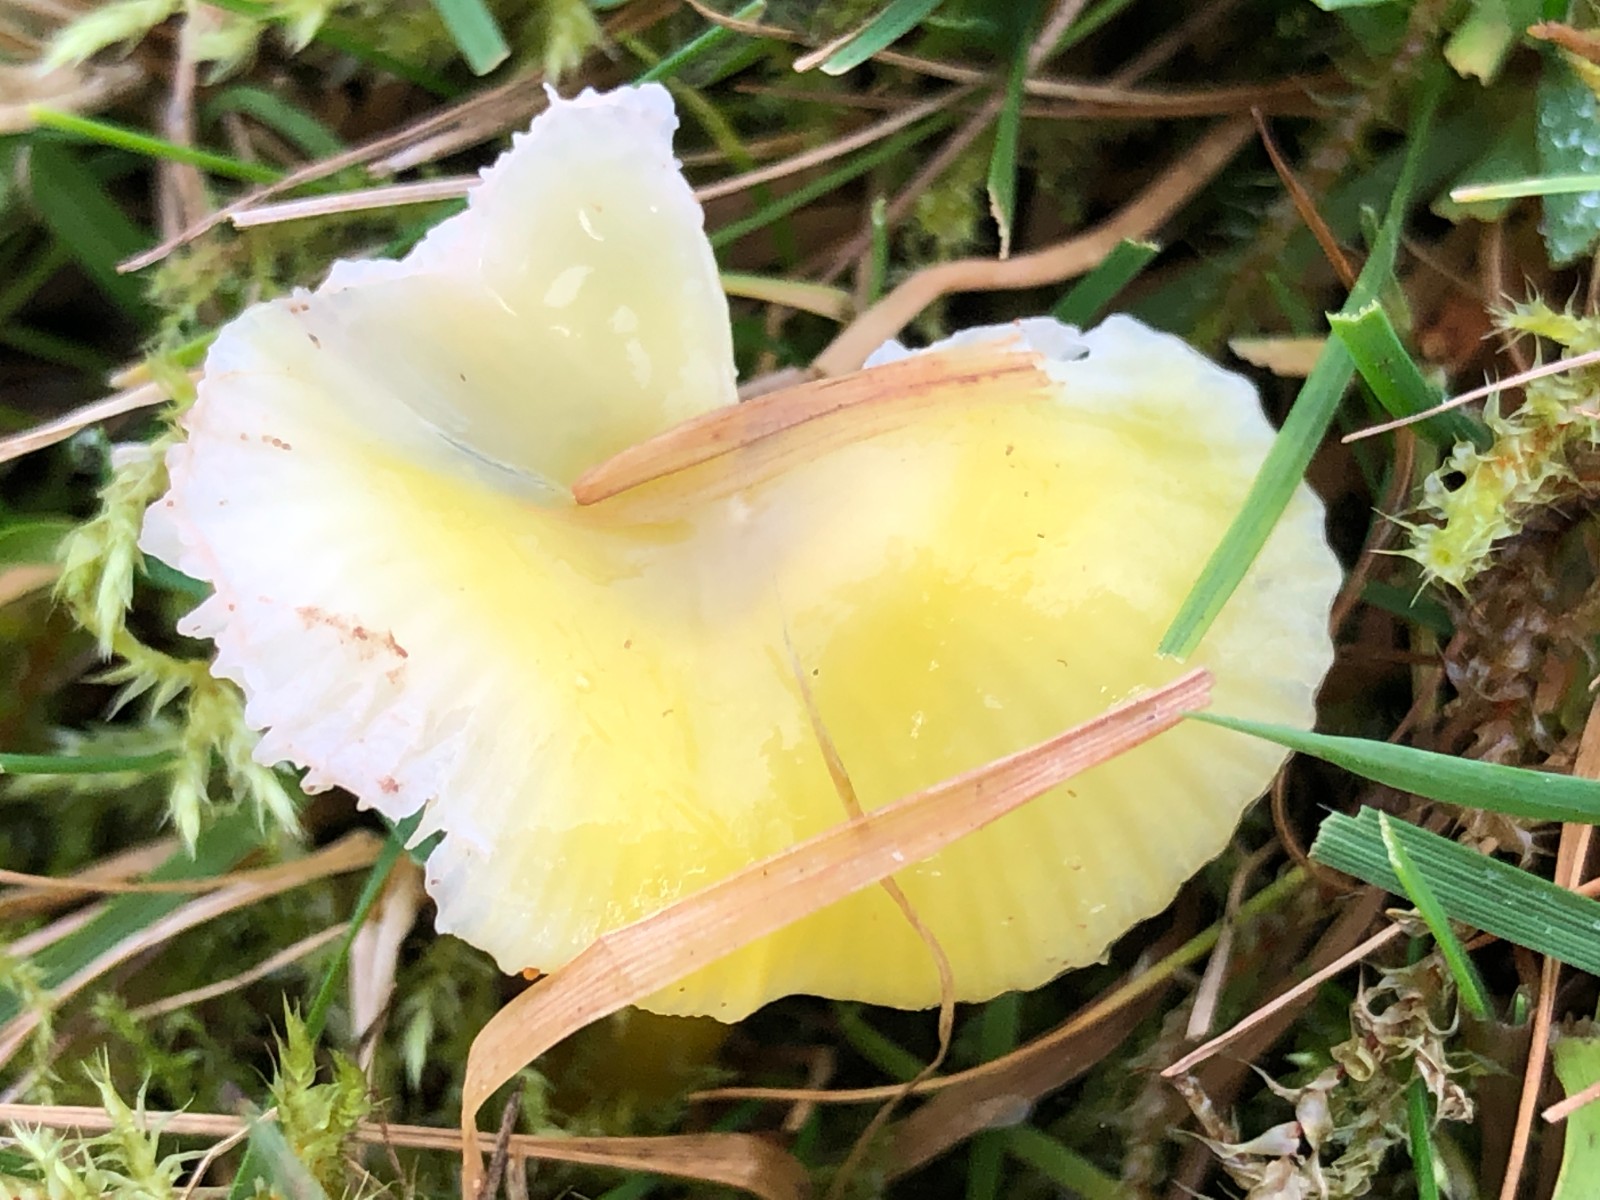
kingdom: Fungi
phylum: Basidiomycota
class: Agaricomycetes
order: Agaricales
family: Hygrophoraceae
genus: Hygrocybe
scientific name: Hygrocybe chlorophana
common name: gul vokshat
